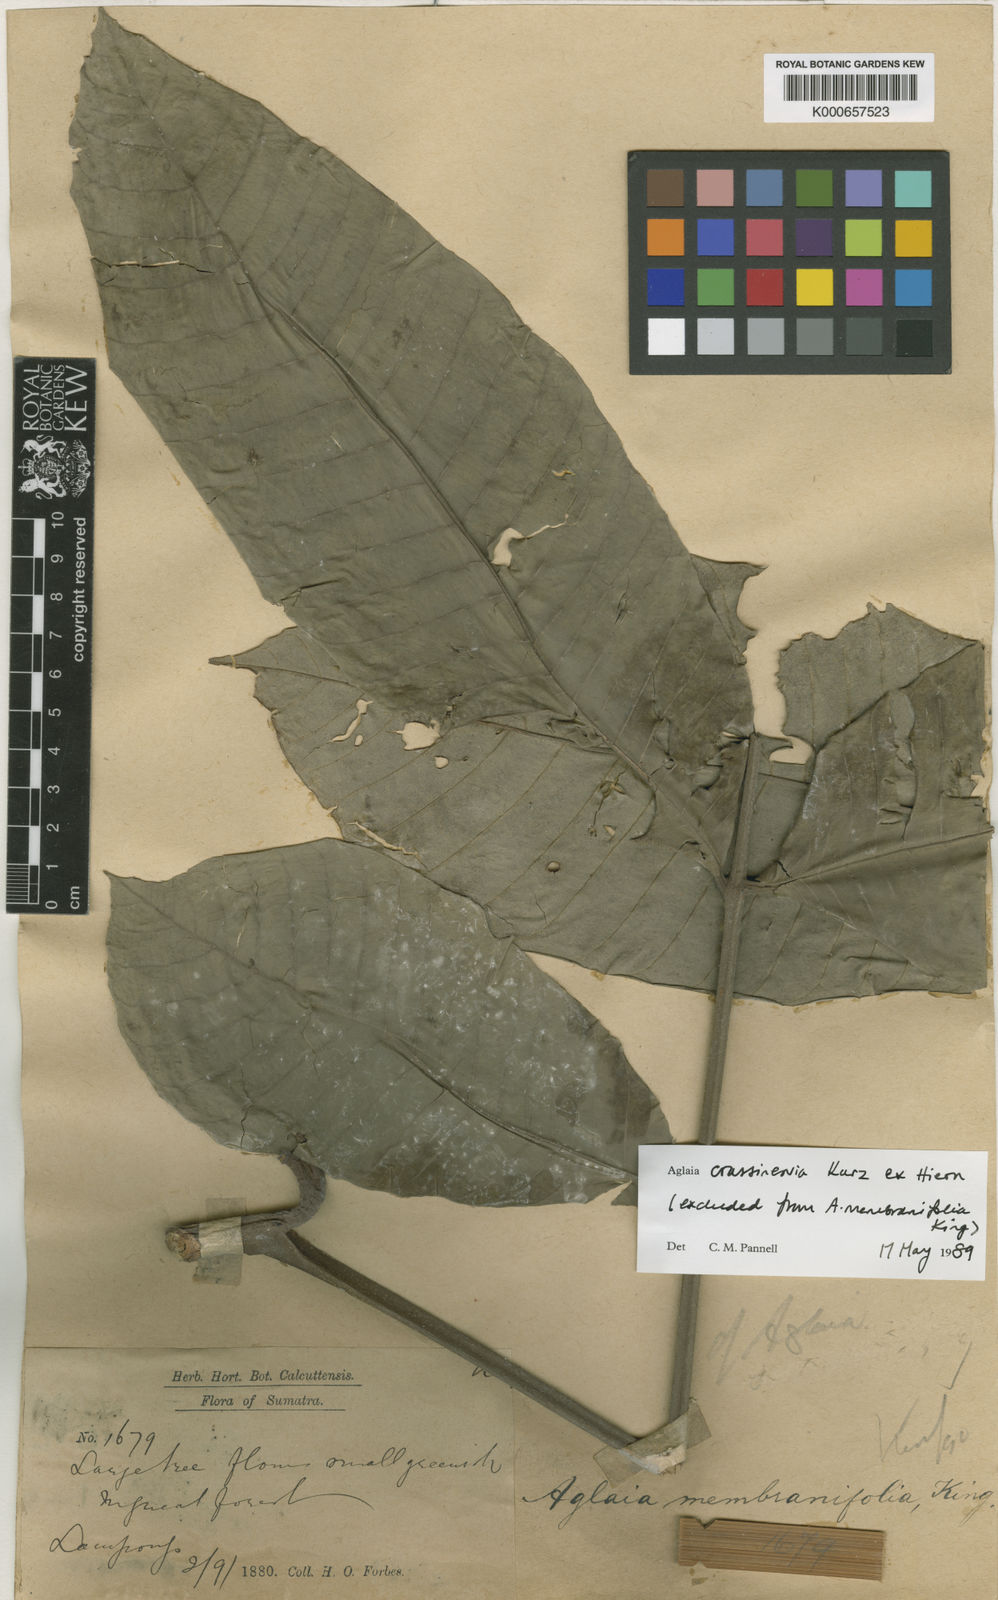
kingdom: Plantae
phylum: Tracheophyta
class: Magnoliopsida
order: Sapindales
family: Meliaceae
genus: Aglaia
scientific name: Aglaia crassinervia
